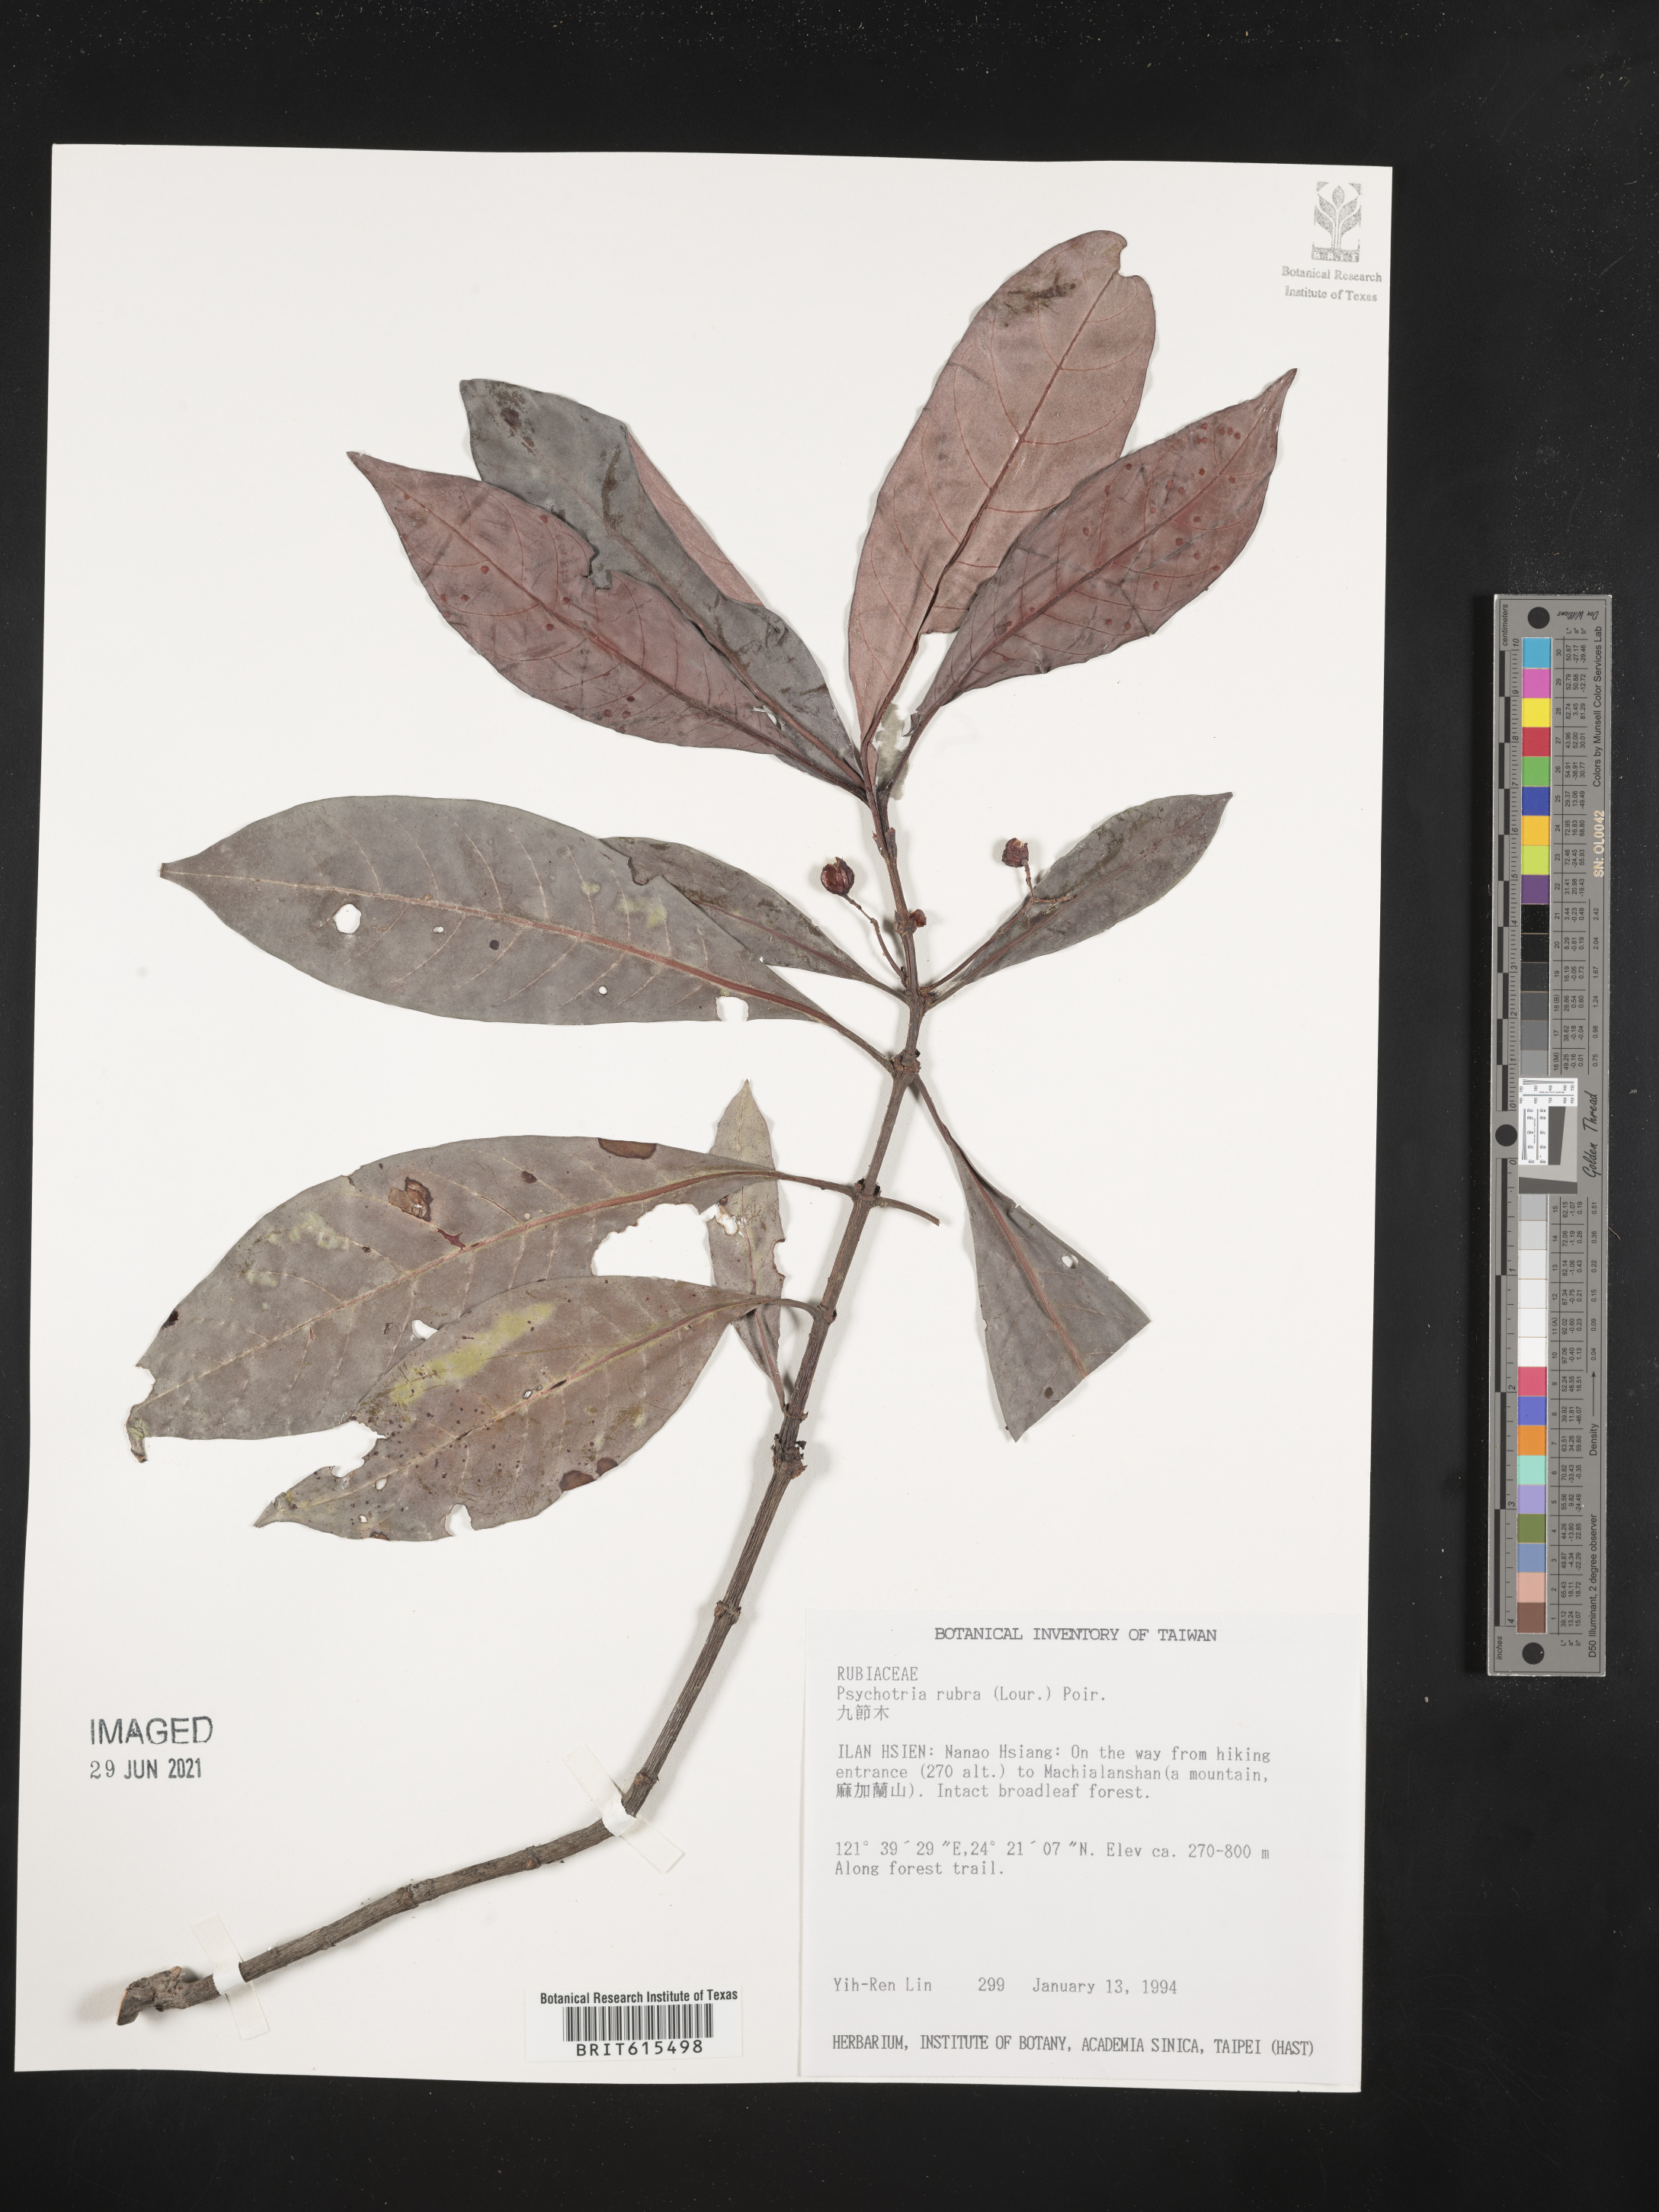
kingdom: Plantae
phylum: Tracheophyta
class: Magnoliopsida
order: Gentianales
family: Rubiaceae
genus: Psychotria
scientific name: Psychotria asiatica
